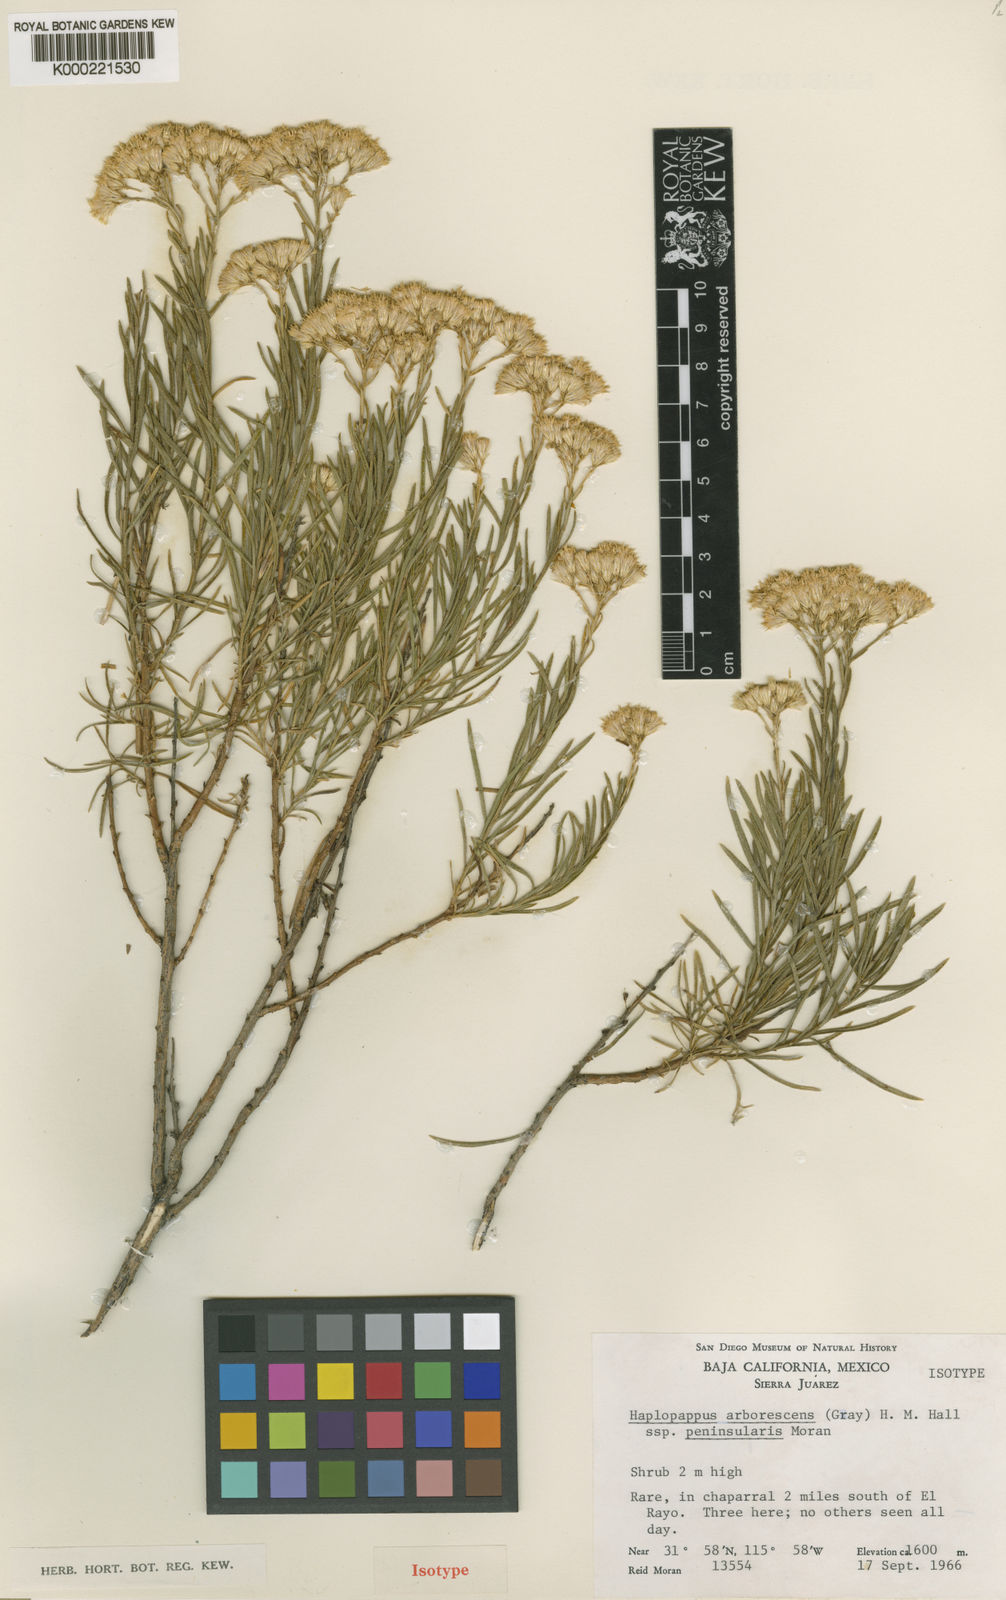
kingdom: Plantae
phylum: Tracheophyta
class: Magnoliopsida
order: Asterales
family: Asteraceae
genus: Ericameria
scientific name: Ericameria arborescens
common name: Goldenfleece
